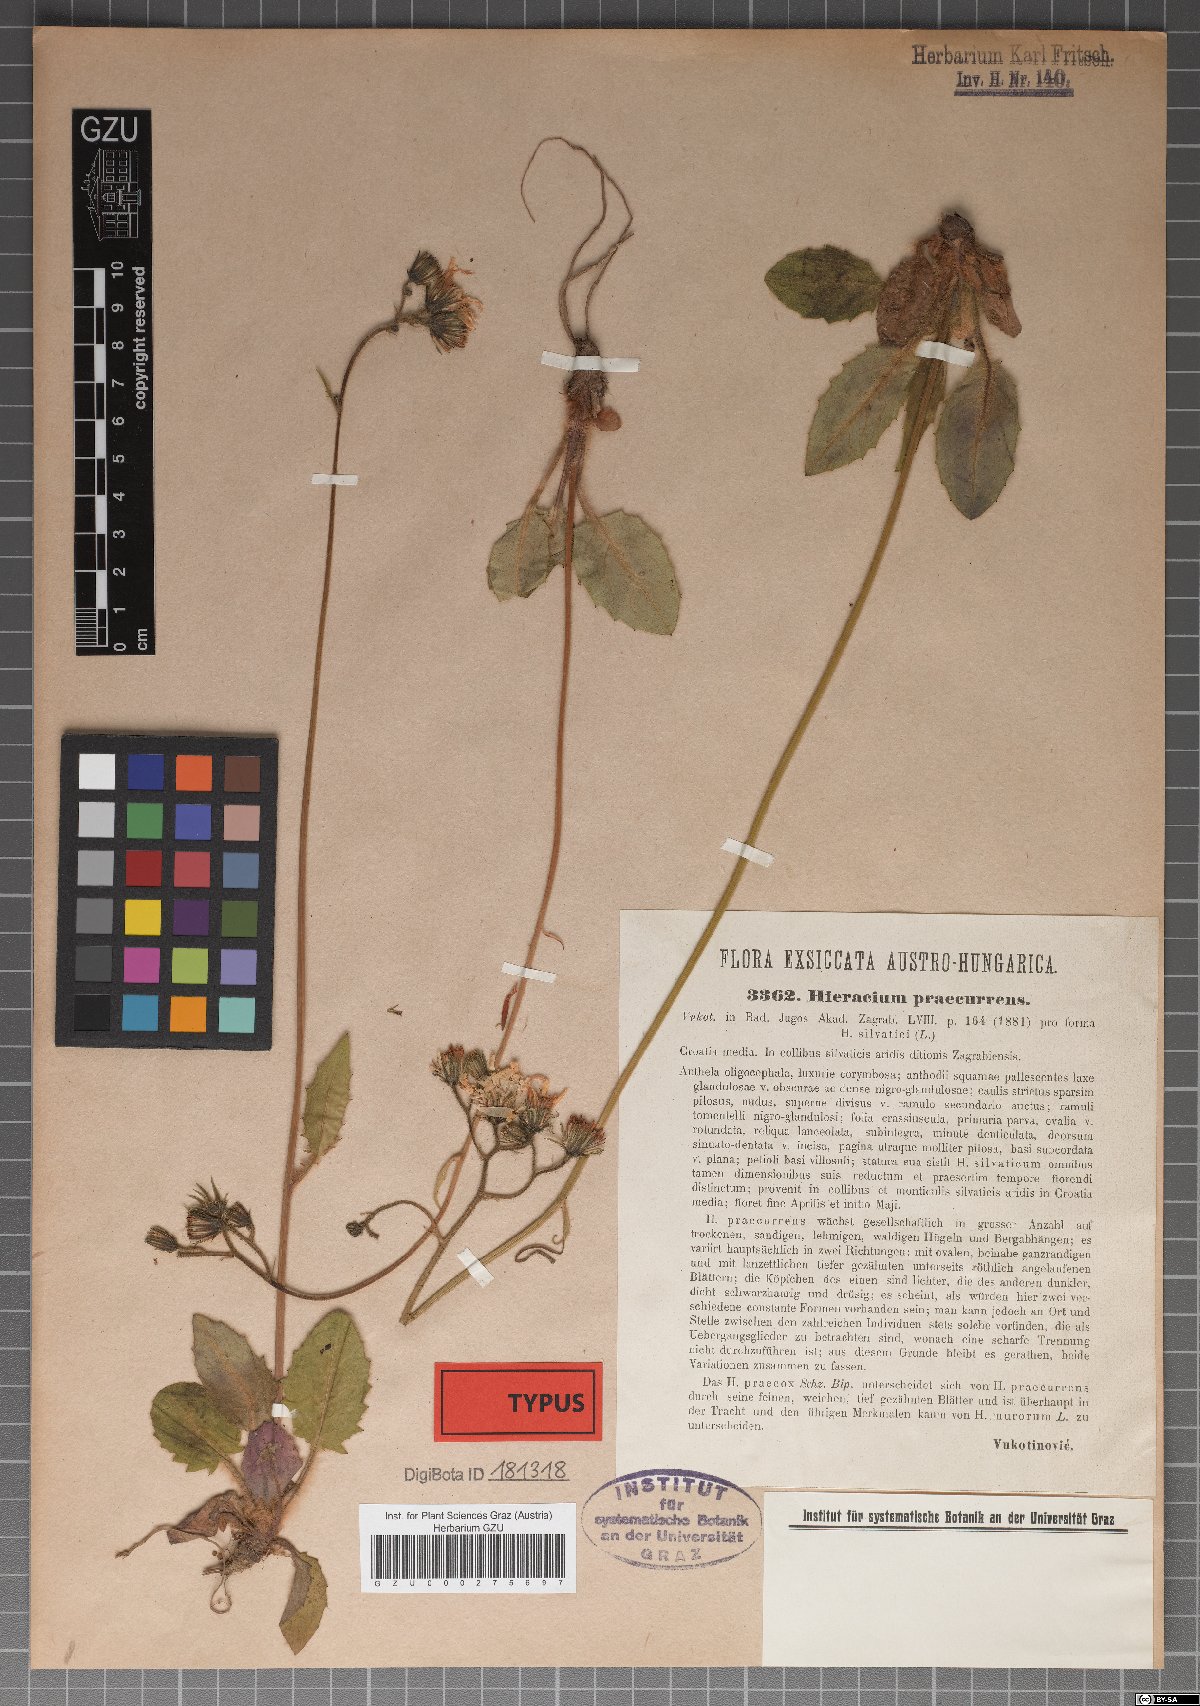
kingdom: Plantae
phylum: Tracheophyta
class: Magnoliopsida
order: Asterales
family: Asteraceae
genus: Hieracium
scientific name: Hieracium rotundatum
